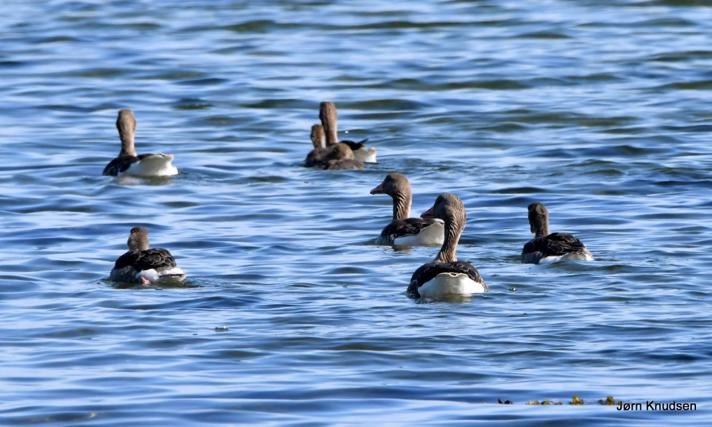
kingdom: Animalia
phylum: Chordata
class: Aves
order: Anseriformes
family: Anatidae
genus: Anser
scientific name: Anser anser
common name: Grågås
